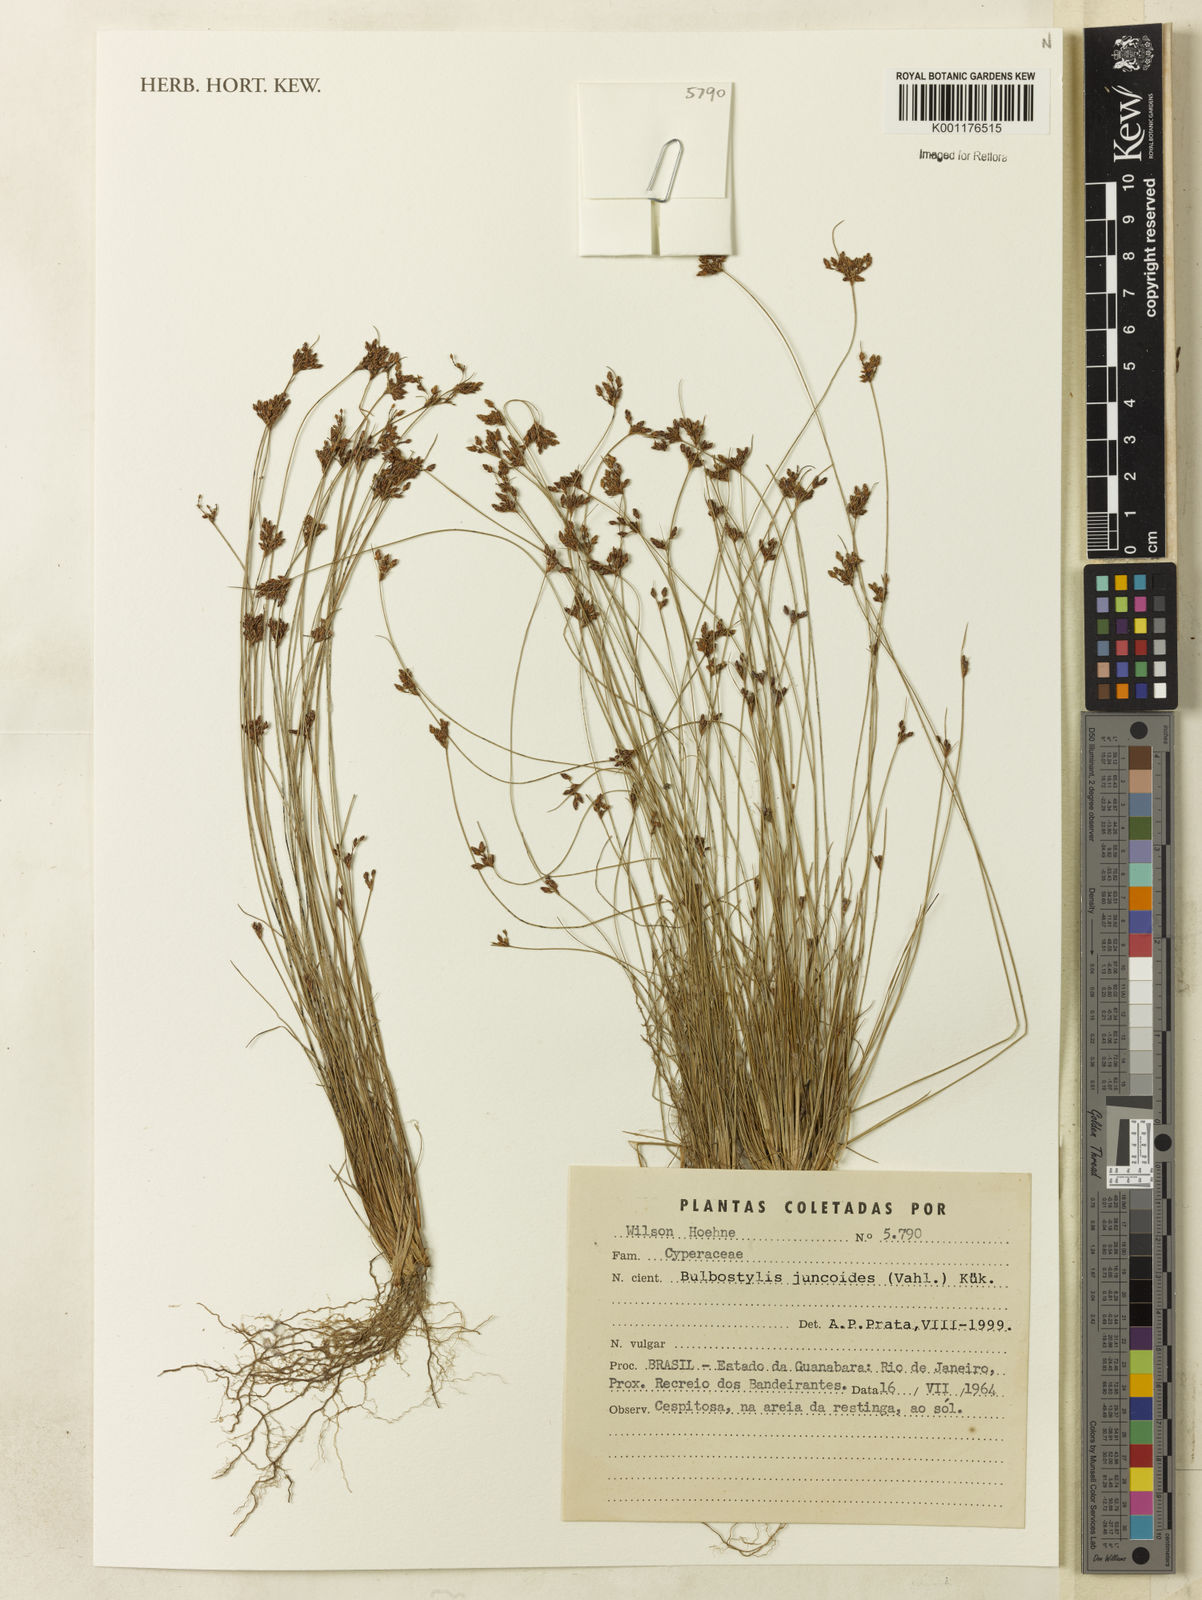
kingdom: Plantae
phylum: Tracheophyta
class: Liliopsida
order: Poales
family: Cyperaceae
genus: Bulbostylis
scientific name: Bulbostylis juncoides
